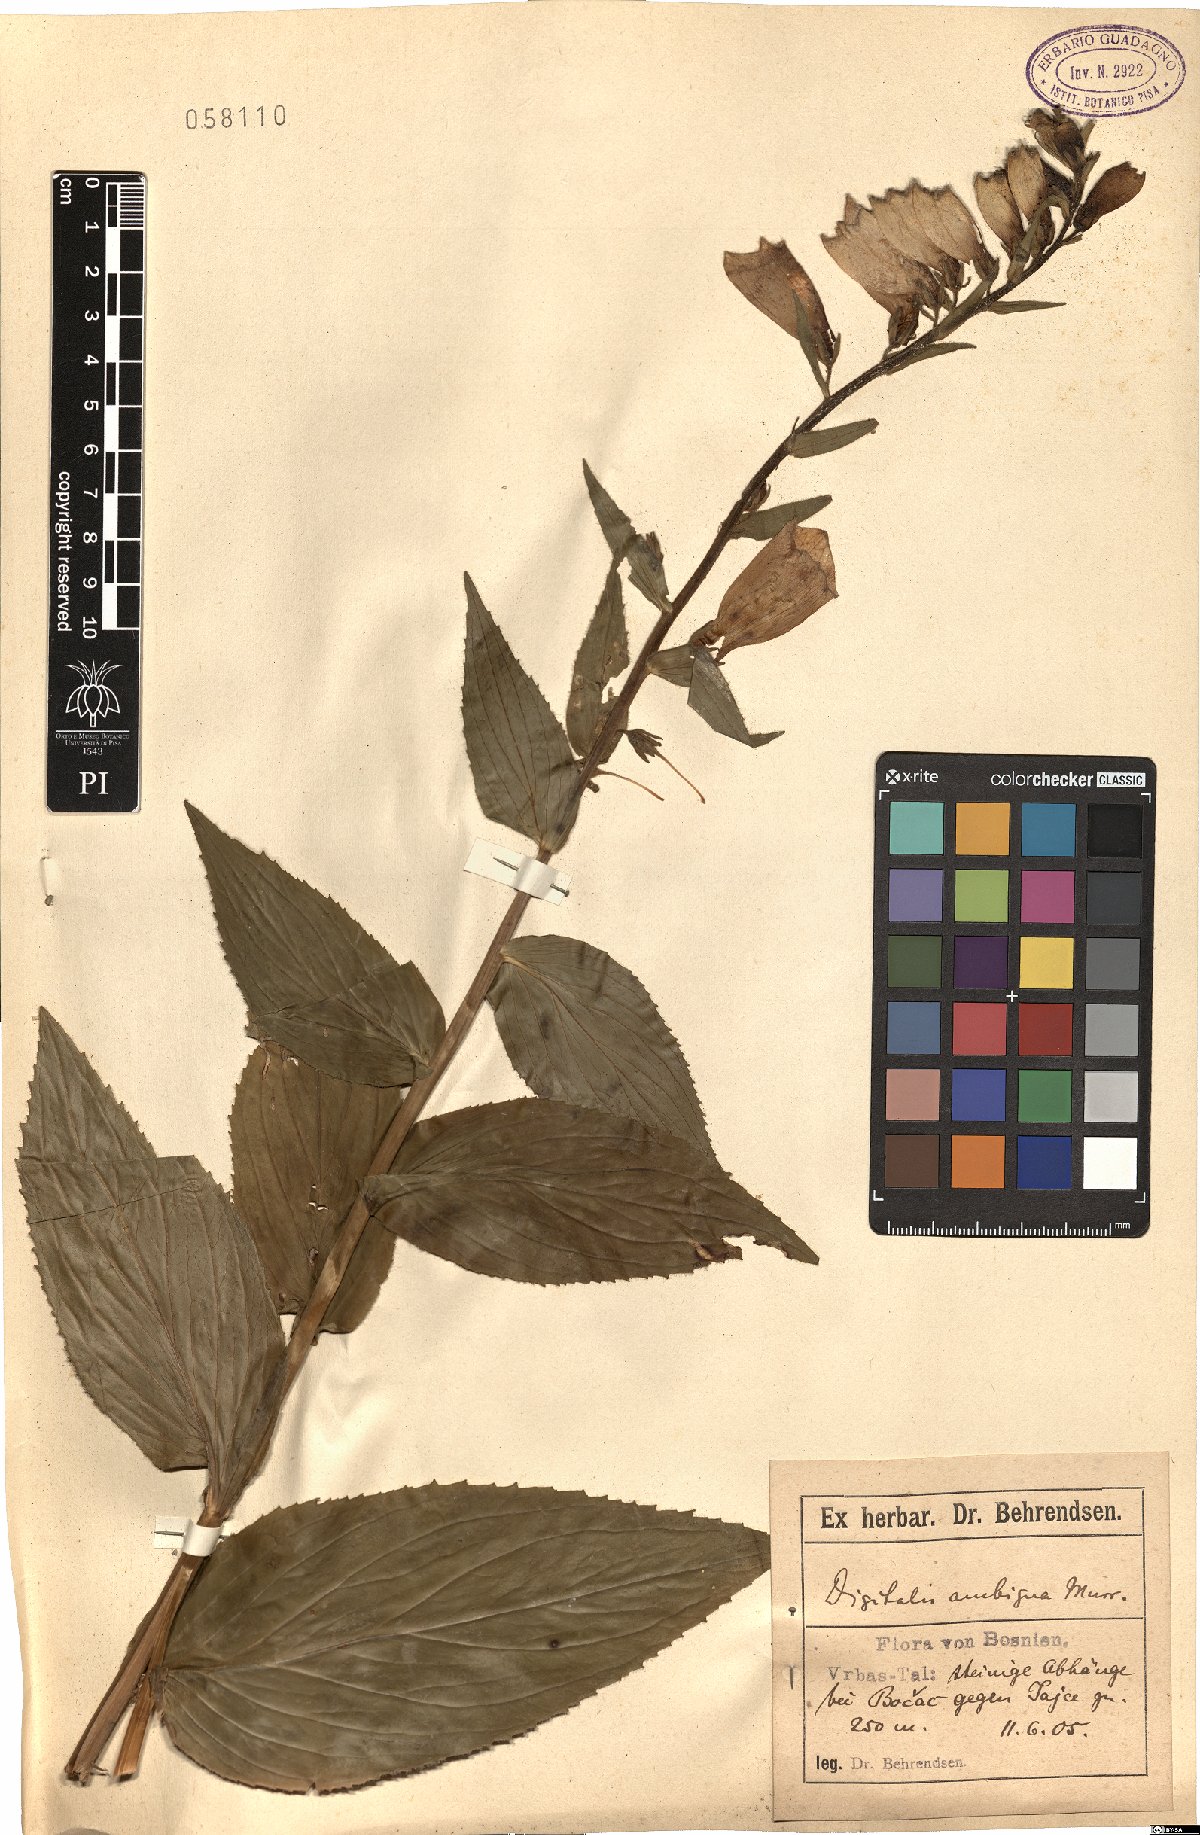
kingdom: Plantae
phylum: Tracheophyta
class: Magnoliopsida
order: Lamiales
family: Plantaginaceae
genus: Digitalis
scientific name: Digitalis grandiflora
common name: Yellow foxglove
